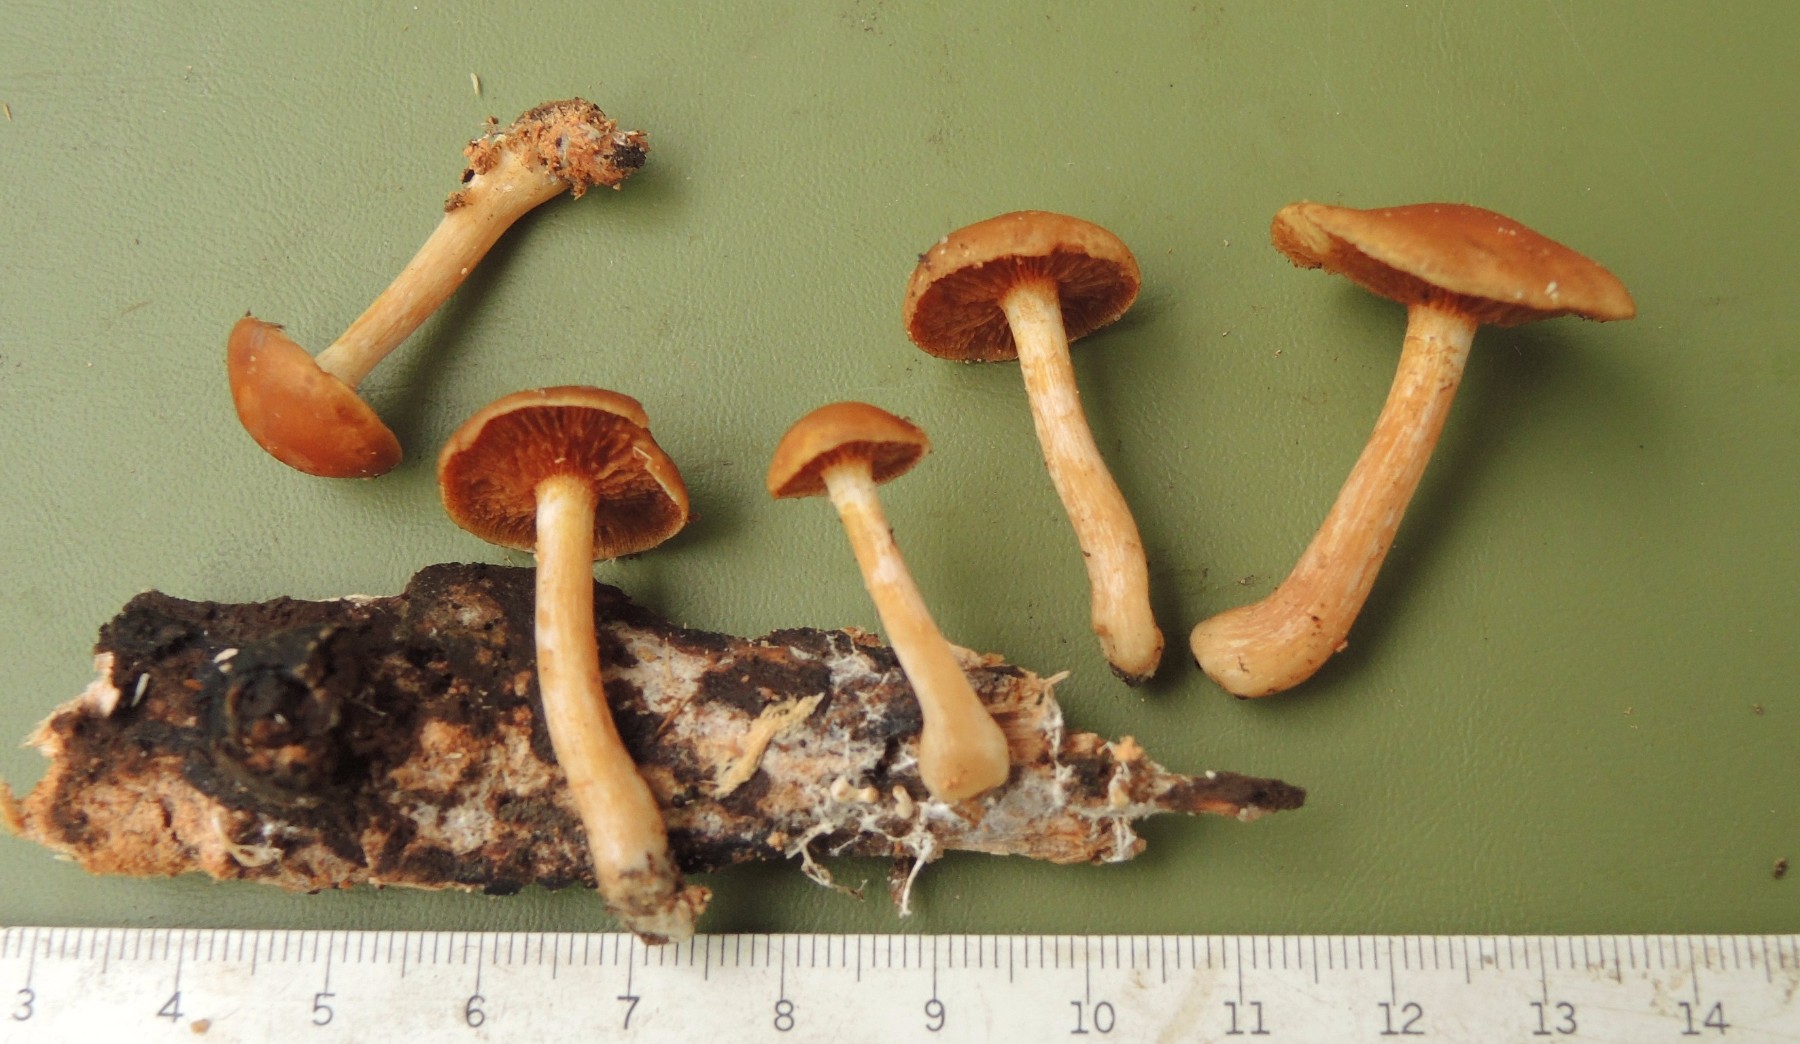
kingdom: Fungi
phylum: Basidiomycota
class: Agaricomycetes
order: Agaricales
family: Hymenogastraceae
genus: Gymnopilus
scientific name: Gymnopilus penetrans
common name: plettet flammehat
